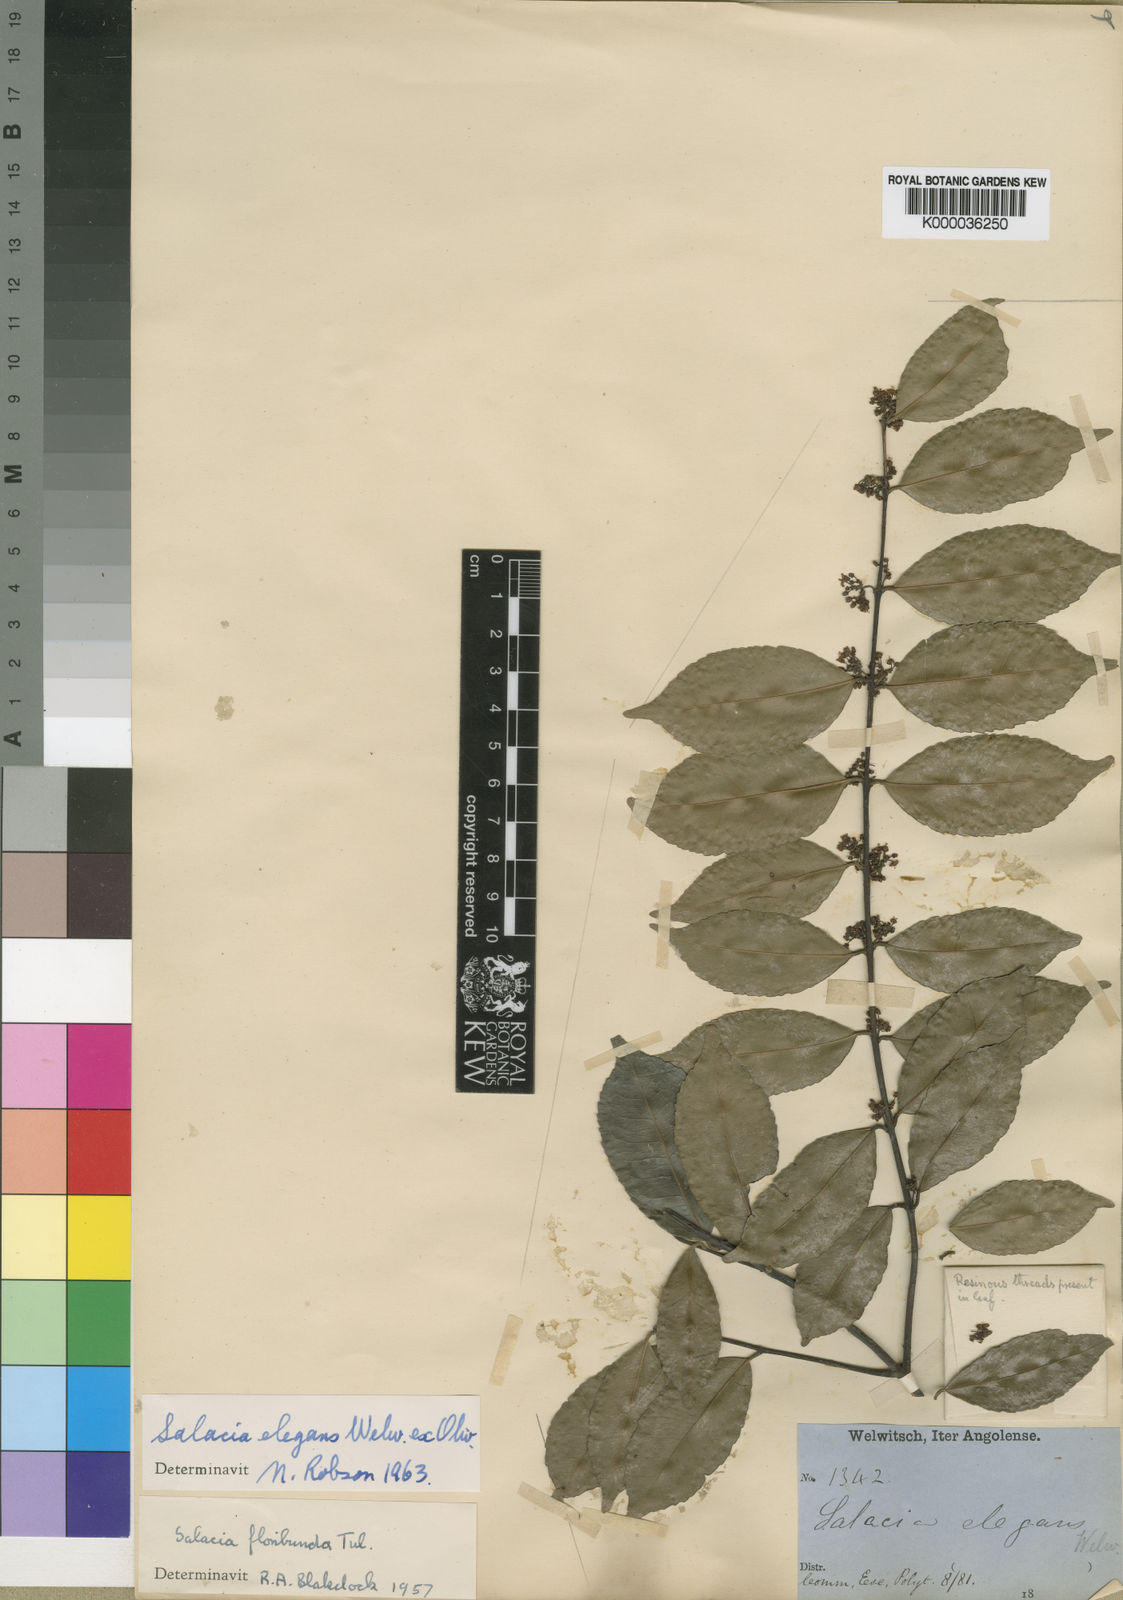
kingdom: Plantae
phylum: Tracheophyta
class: Magnoliopsida
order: Celastrales
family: Celastraceae
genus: Salacia
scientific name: Salacia elegans
